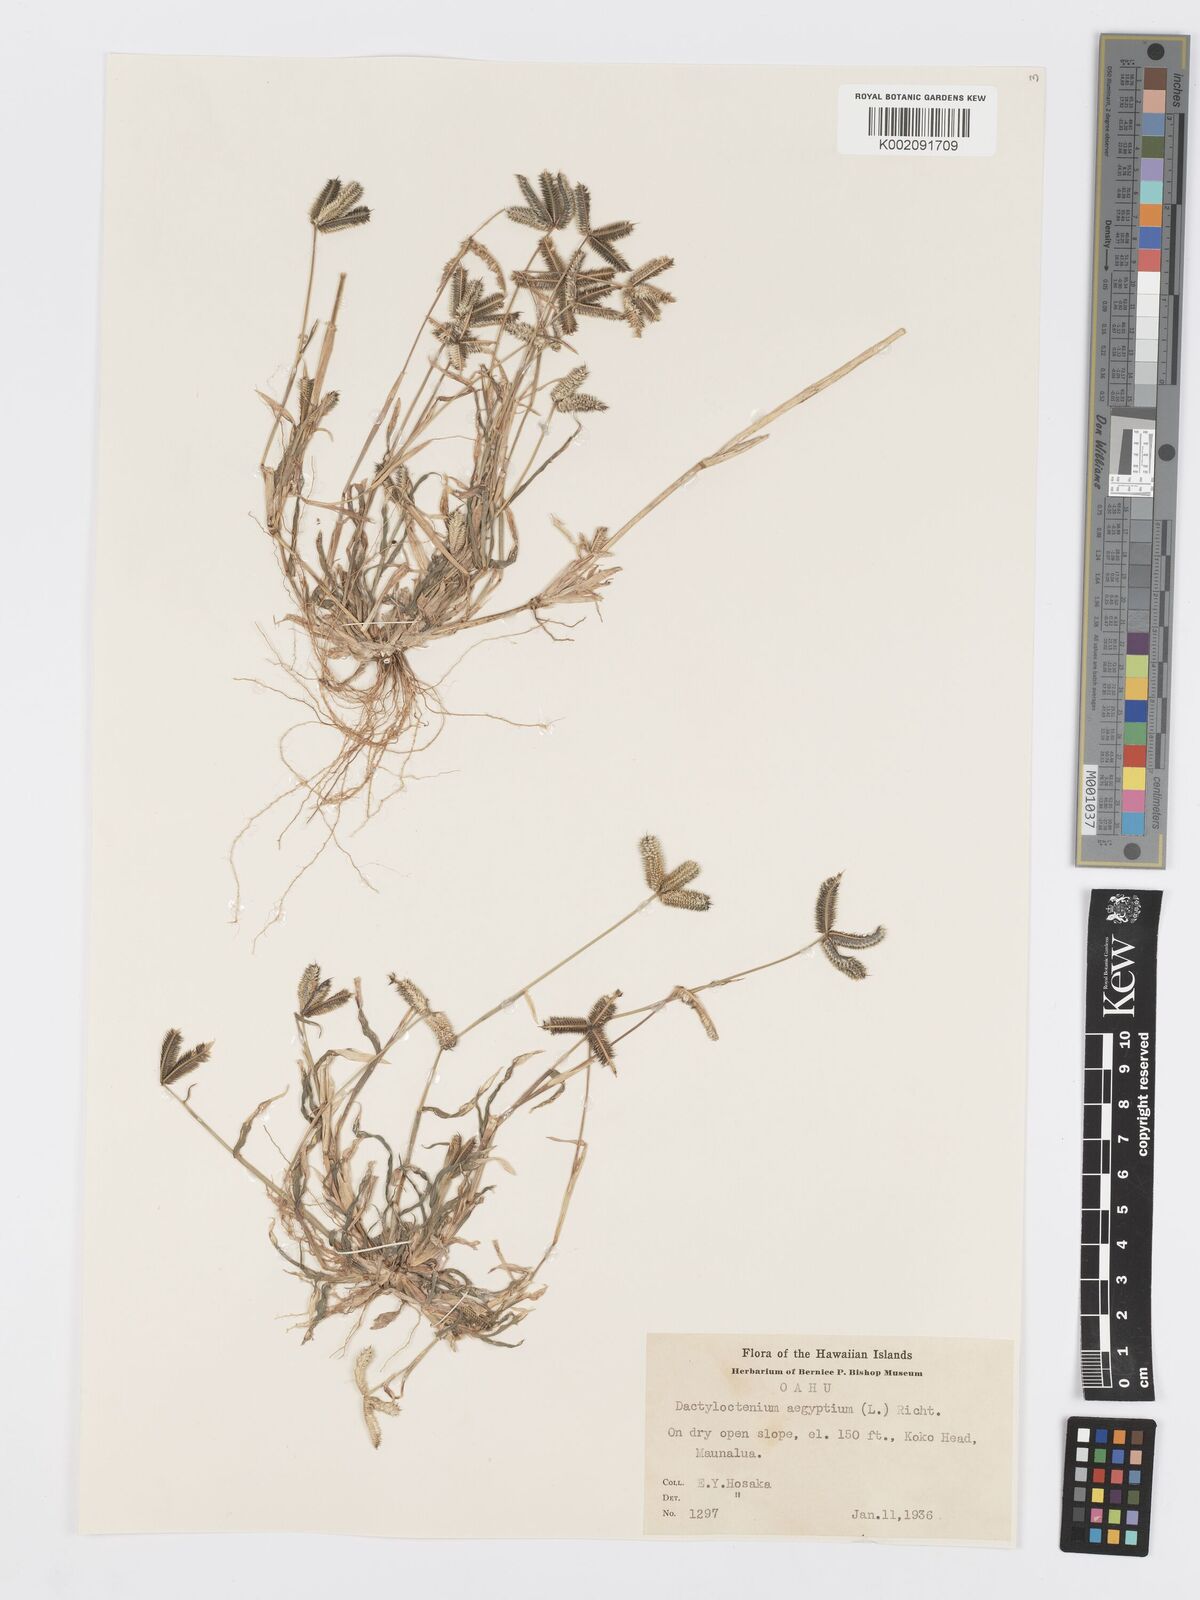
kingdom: Plantae
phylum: Tracheophyta
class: Liliopsida
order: Poales
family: Poaceae
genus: Dactyloctenium
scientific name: Dactyloctenium aegyptium
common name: Egyptian grass
